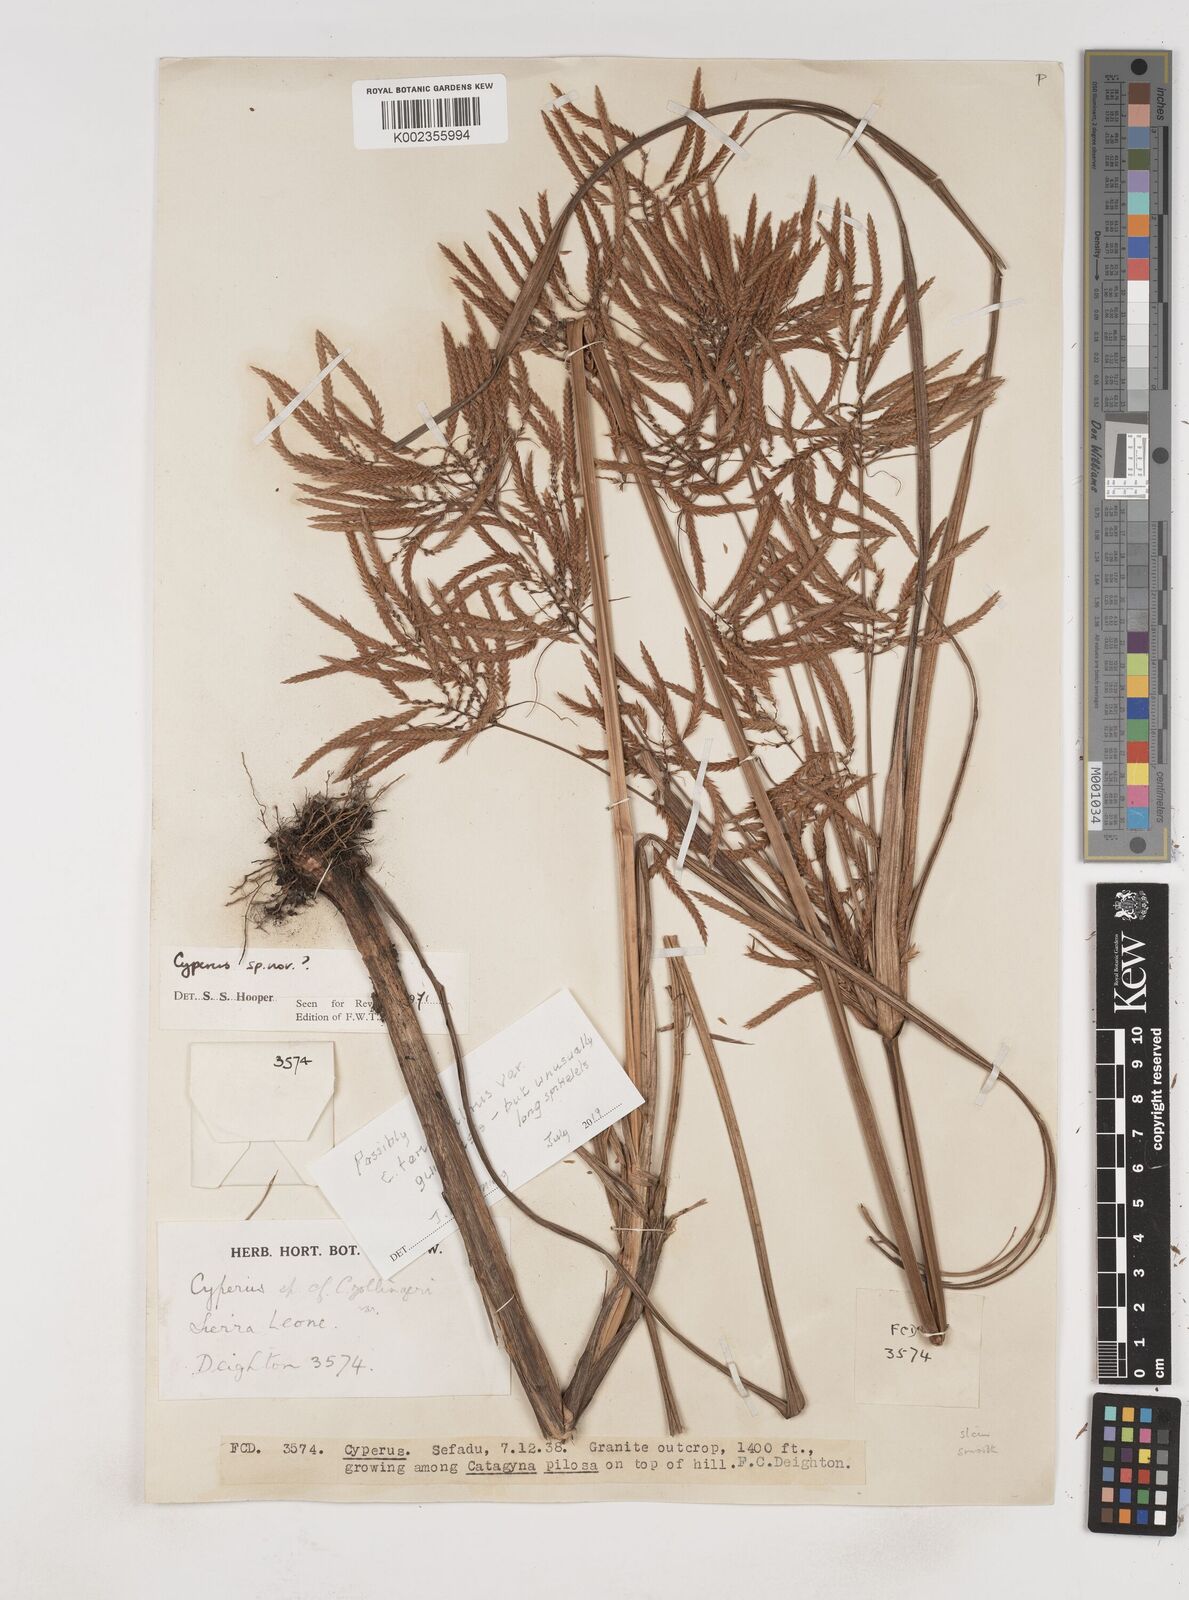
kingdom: Plantae
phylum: Tracheophyta
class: Liliopsida
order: Poales
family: Cyperaceae
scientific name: Cyperaceae
